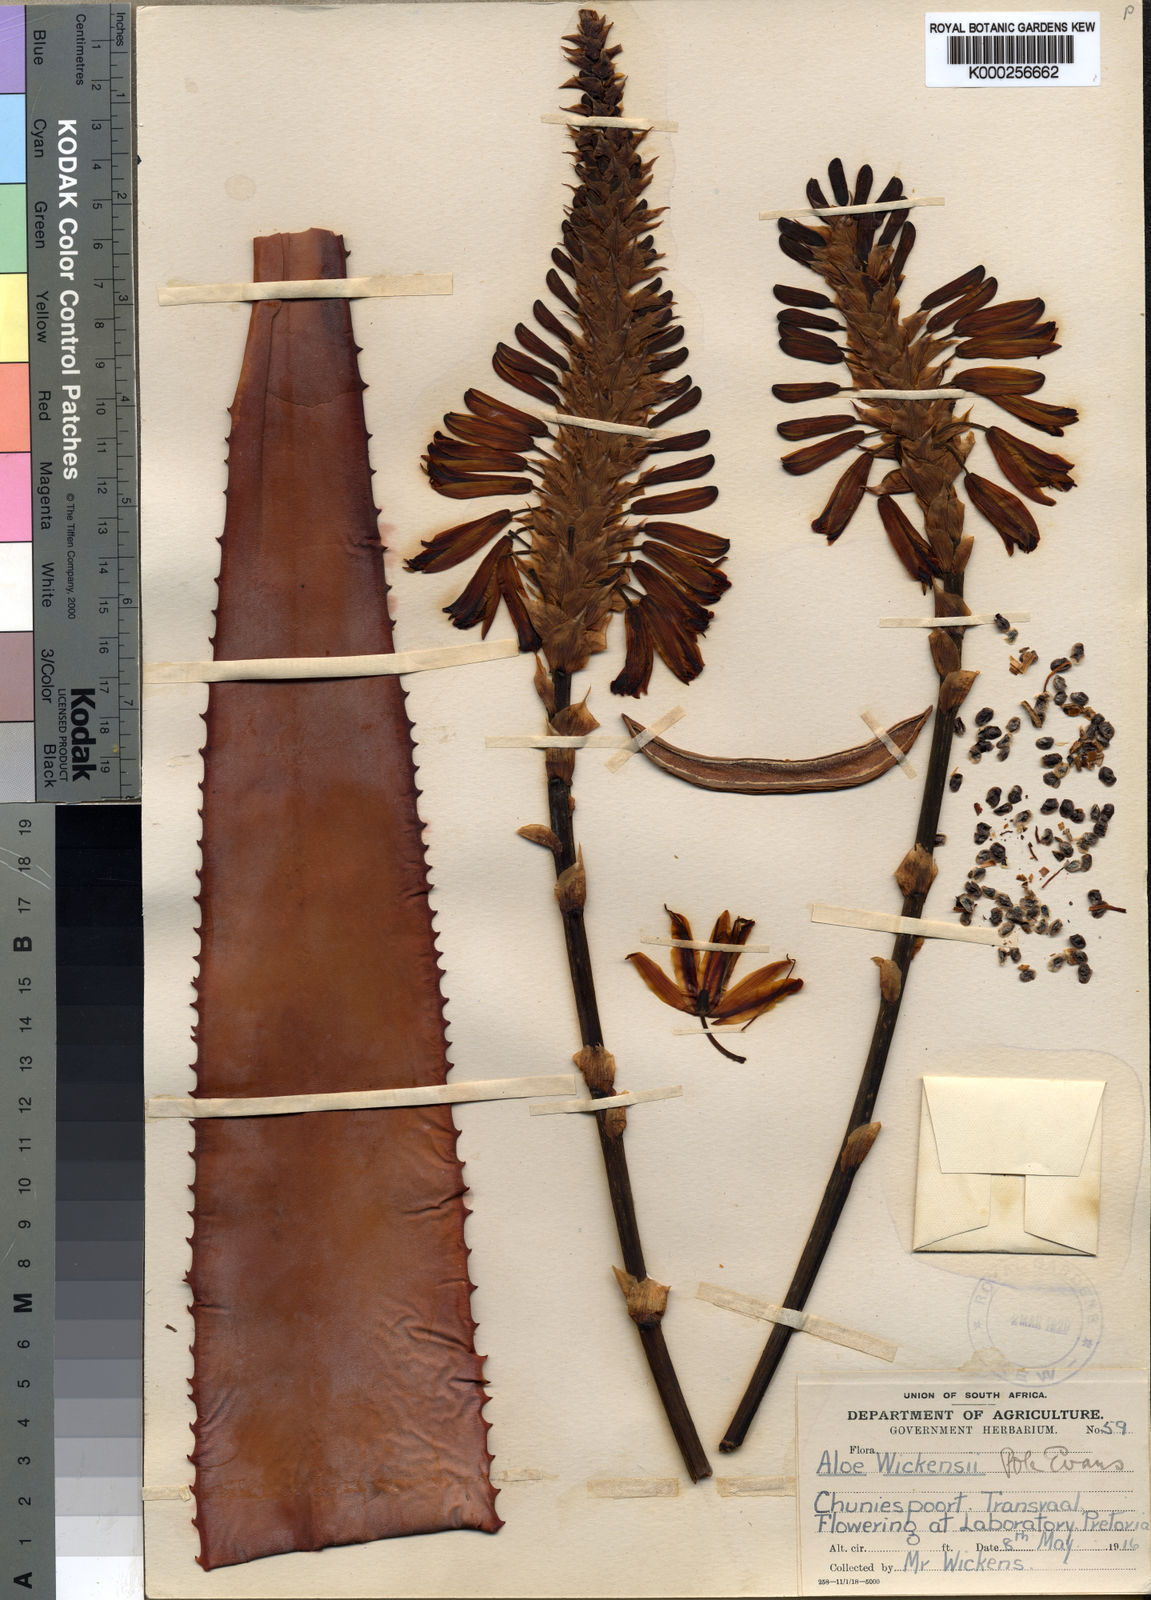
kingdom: Plantae
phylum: Tracheophyta
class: Liliopsida
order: Asparagales
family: Asphodelaceae
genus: Aloe
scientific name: Aloe wickensii
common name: Wickens' aloe
